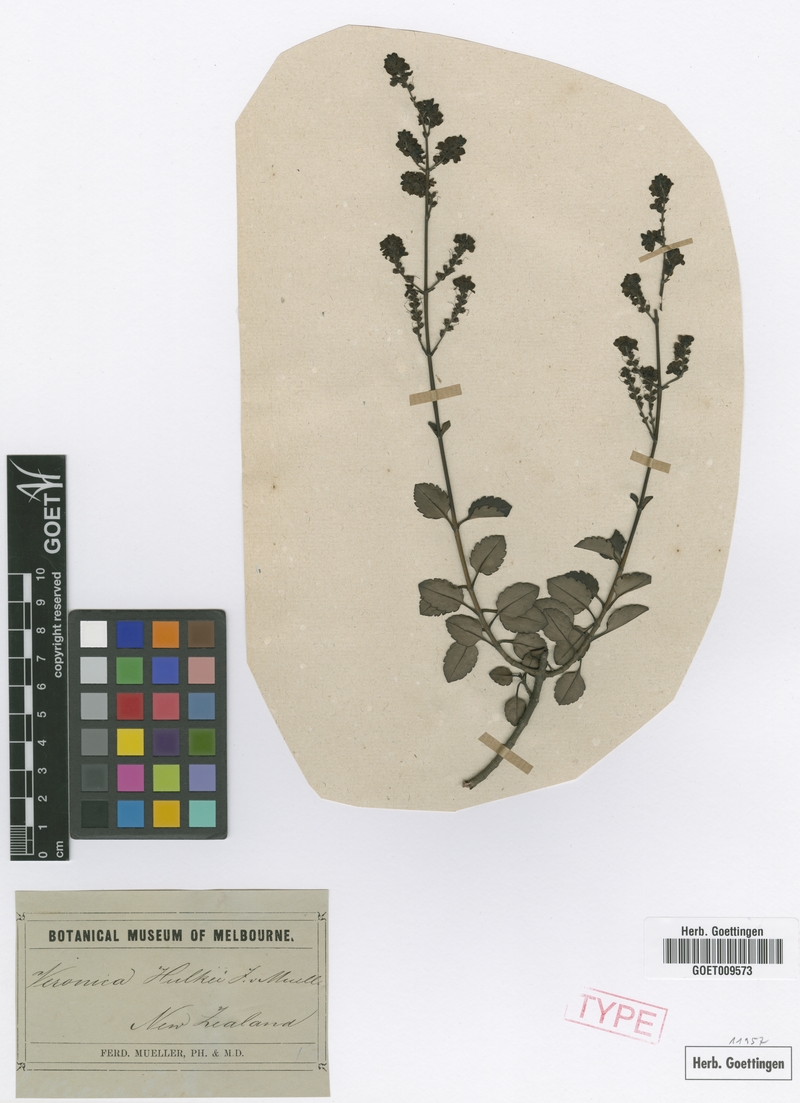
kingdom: Plantae
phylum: Tracheophyta
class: Magnoliopsida
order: Lamiales
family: Plantaginaceae
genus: Veronica
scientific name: Veronica hulkeana
